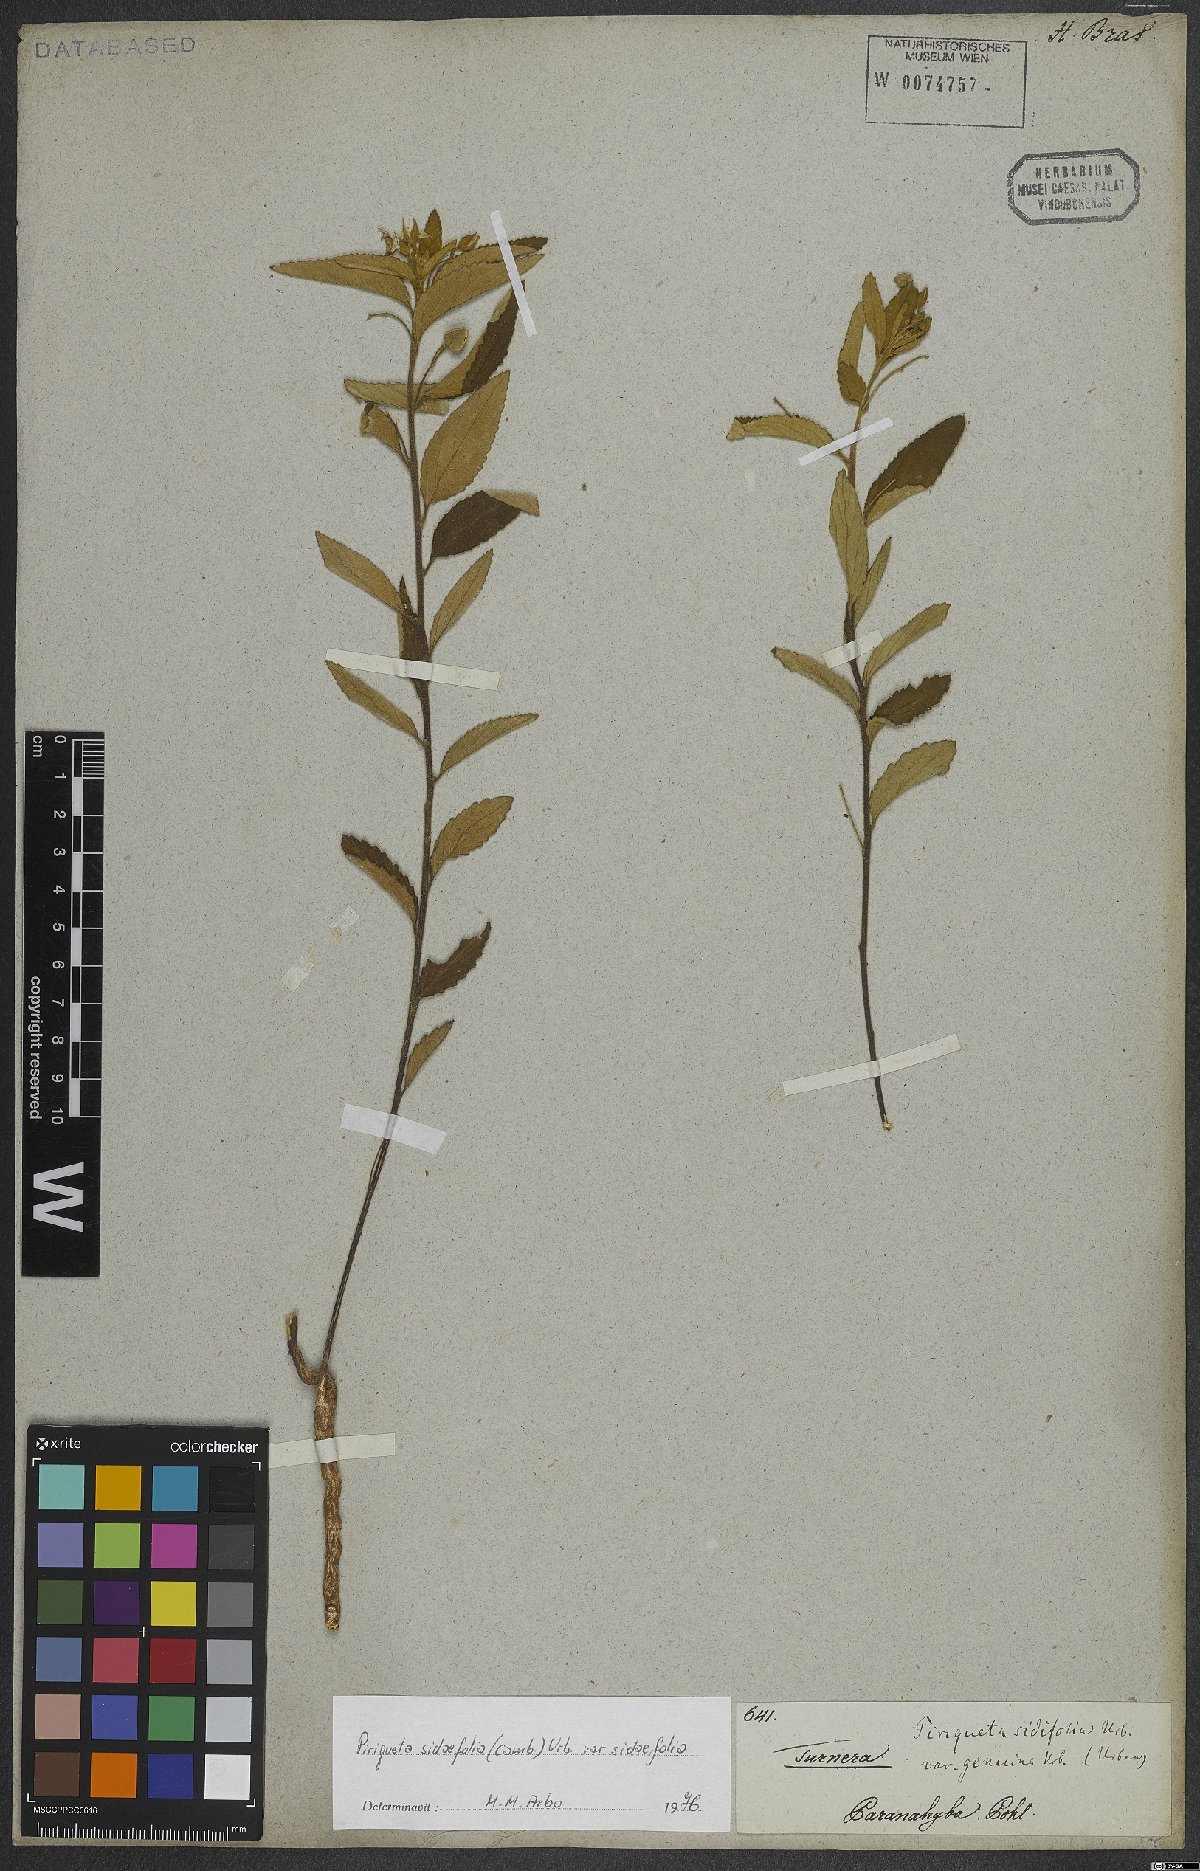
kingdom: Plantae
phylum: Tracheophyta
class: Magnoliopsida
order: Malpighiales
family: Turneraceae
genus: Piriqueta
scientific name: Piriqueta sidifolia
